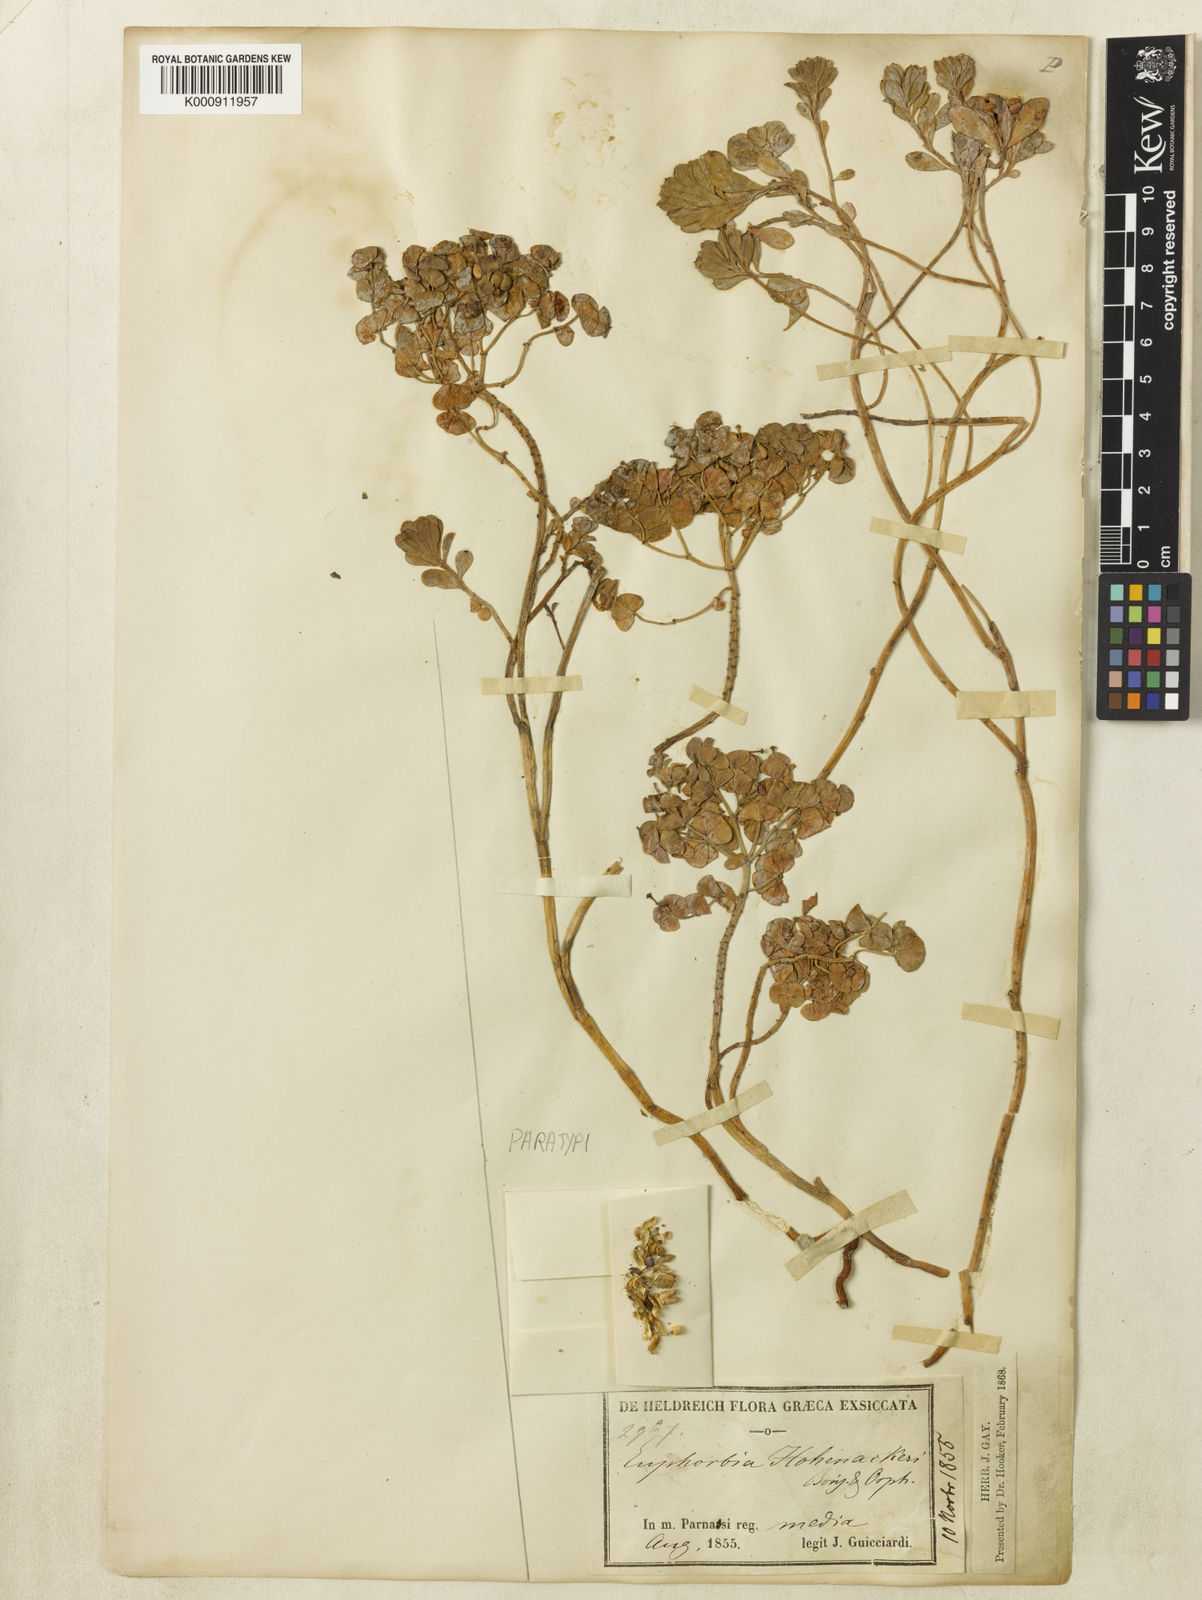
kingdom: Plantae
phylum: Tracheophyta
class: Magnoliopsida
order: Malpighiales
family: Euphorbiaceae
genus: Euphorbia
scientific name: Euphorbia orphanidis
